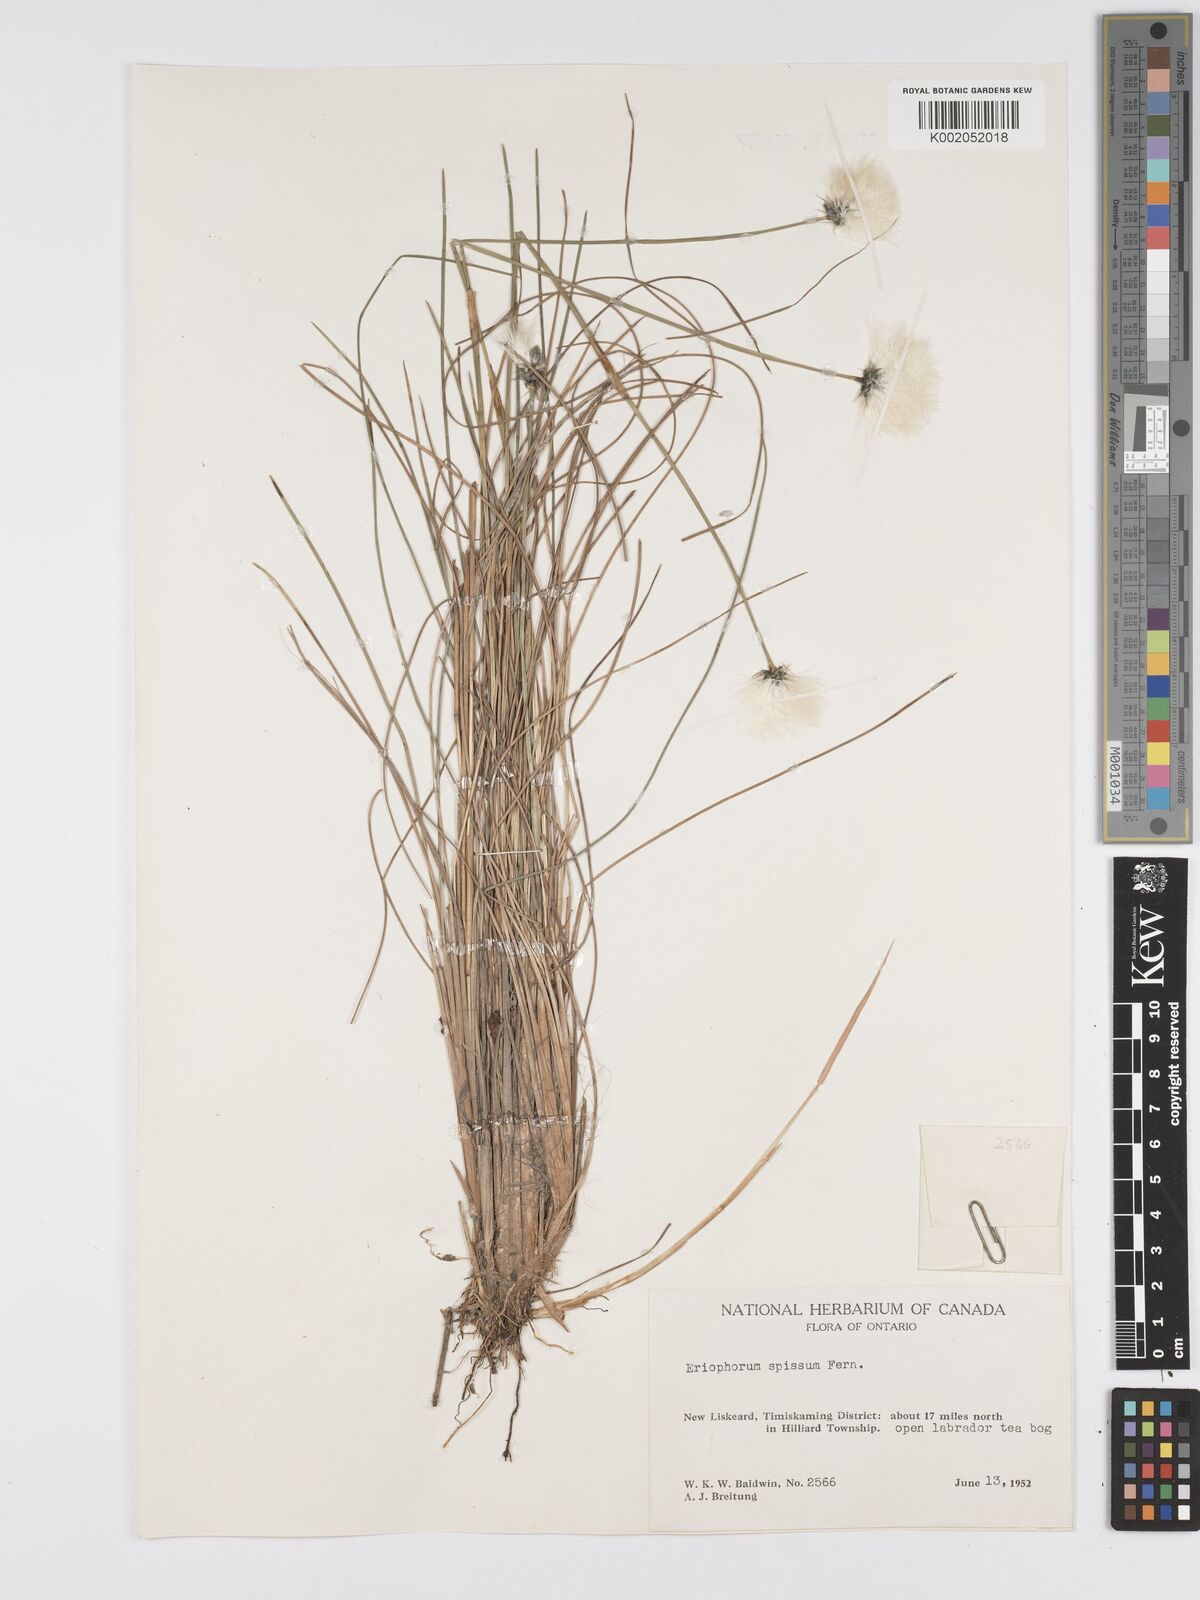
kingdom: Plantae
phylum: Tracheophyta
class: Liliopsida
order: Poales
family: Cyperaceae
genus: Eriophorum
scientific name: Eriophorum vaginatum
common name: Hare's-tail cottongrass
